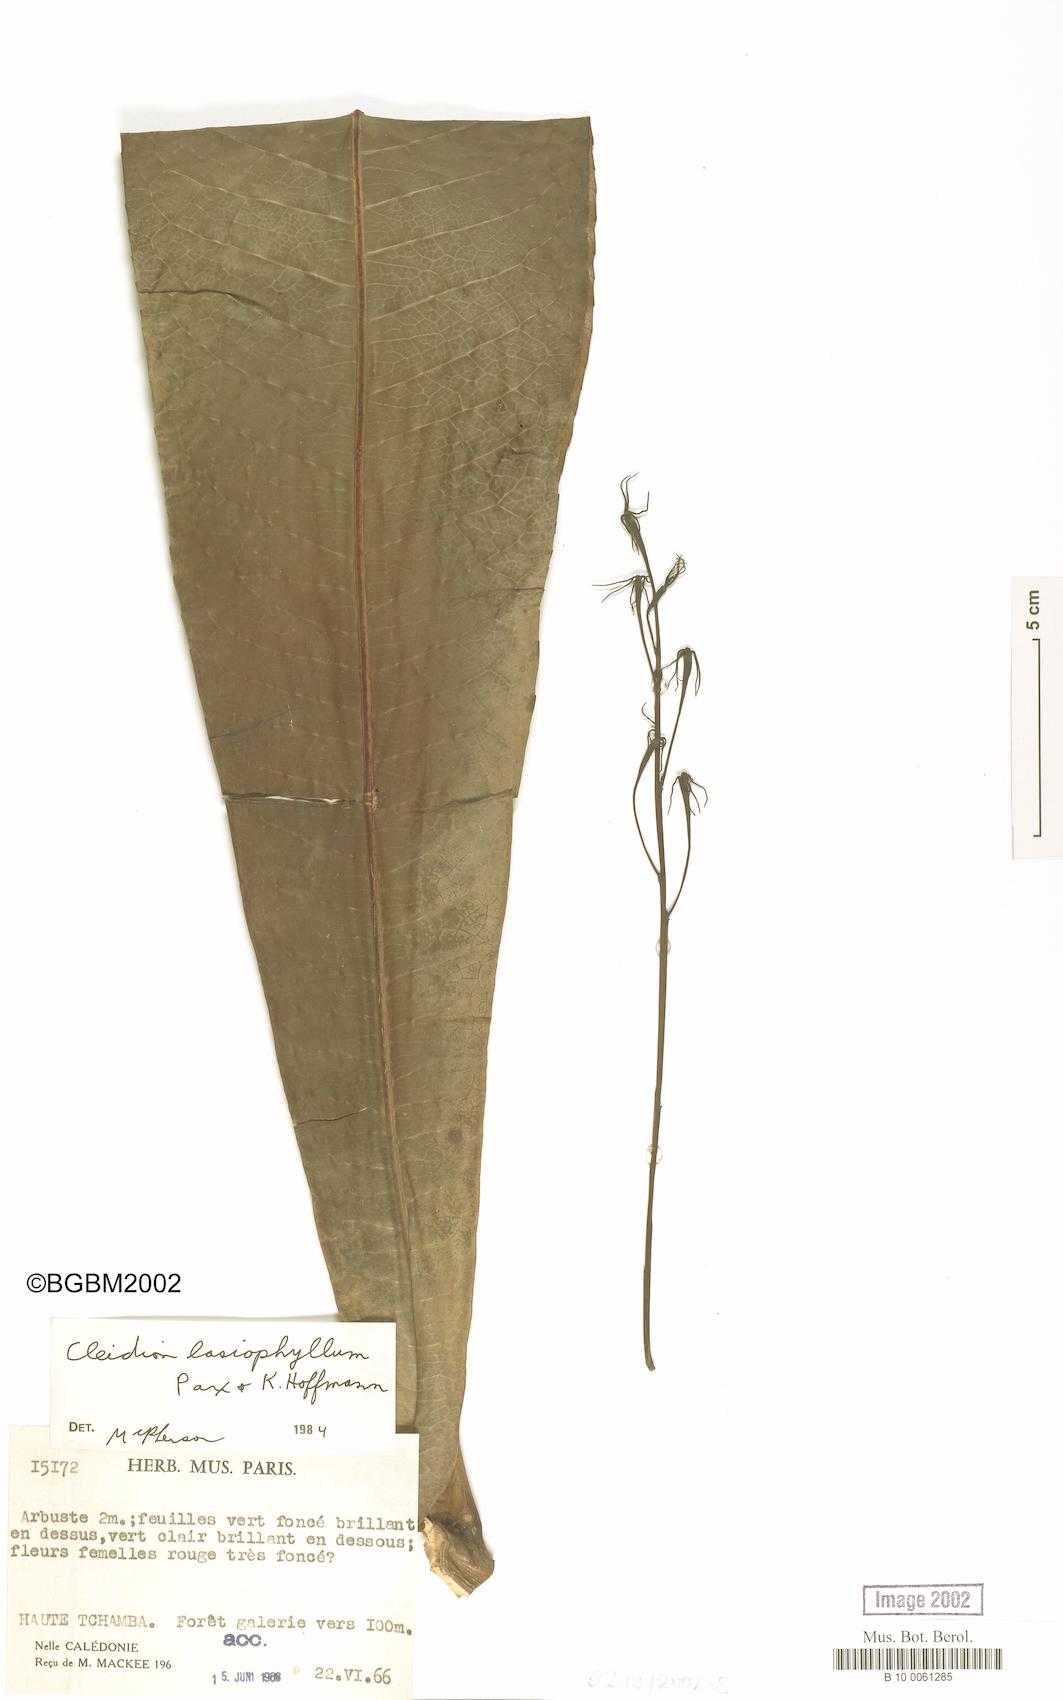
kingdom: Plantae
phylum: Tracheophyta
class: Magnoliopsida
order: Malpighiales
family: Euphorbiaceae
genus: Cleidion
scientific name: Cleidion lasiophyllum
